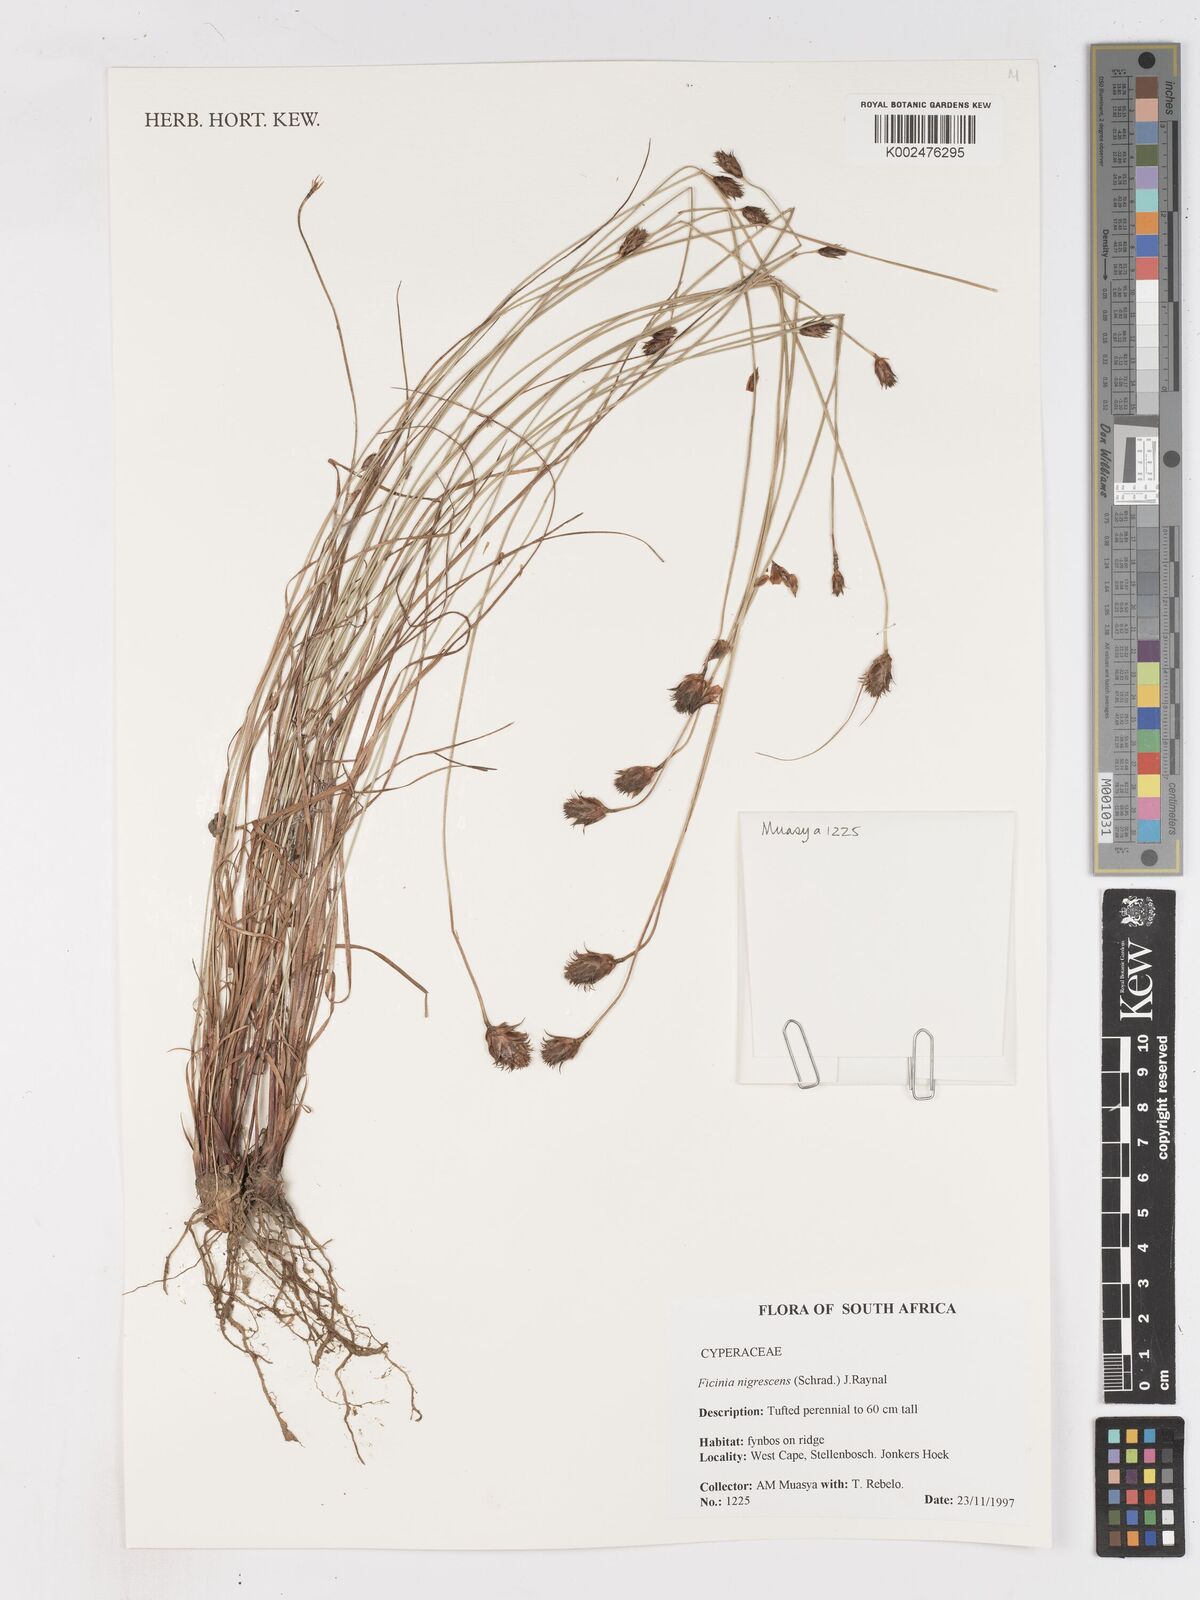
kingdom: Plantae
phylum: Tracheophyta
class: Liliopsida
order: Poales
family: Cyperaceae
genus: Ficinia
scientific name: Ficinia nigrescens
